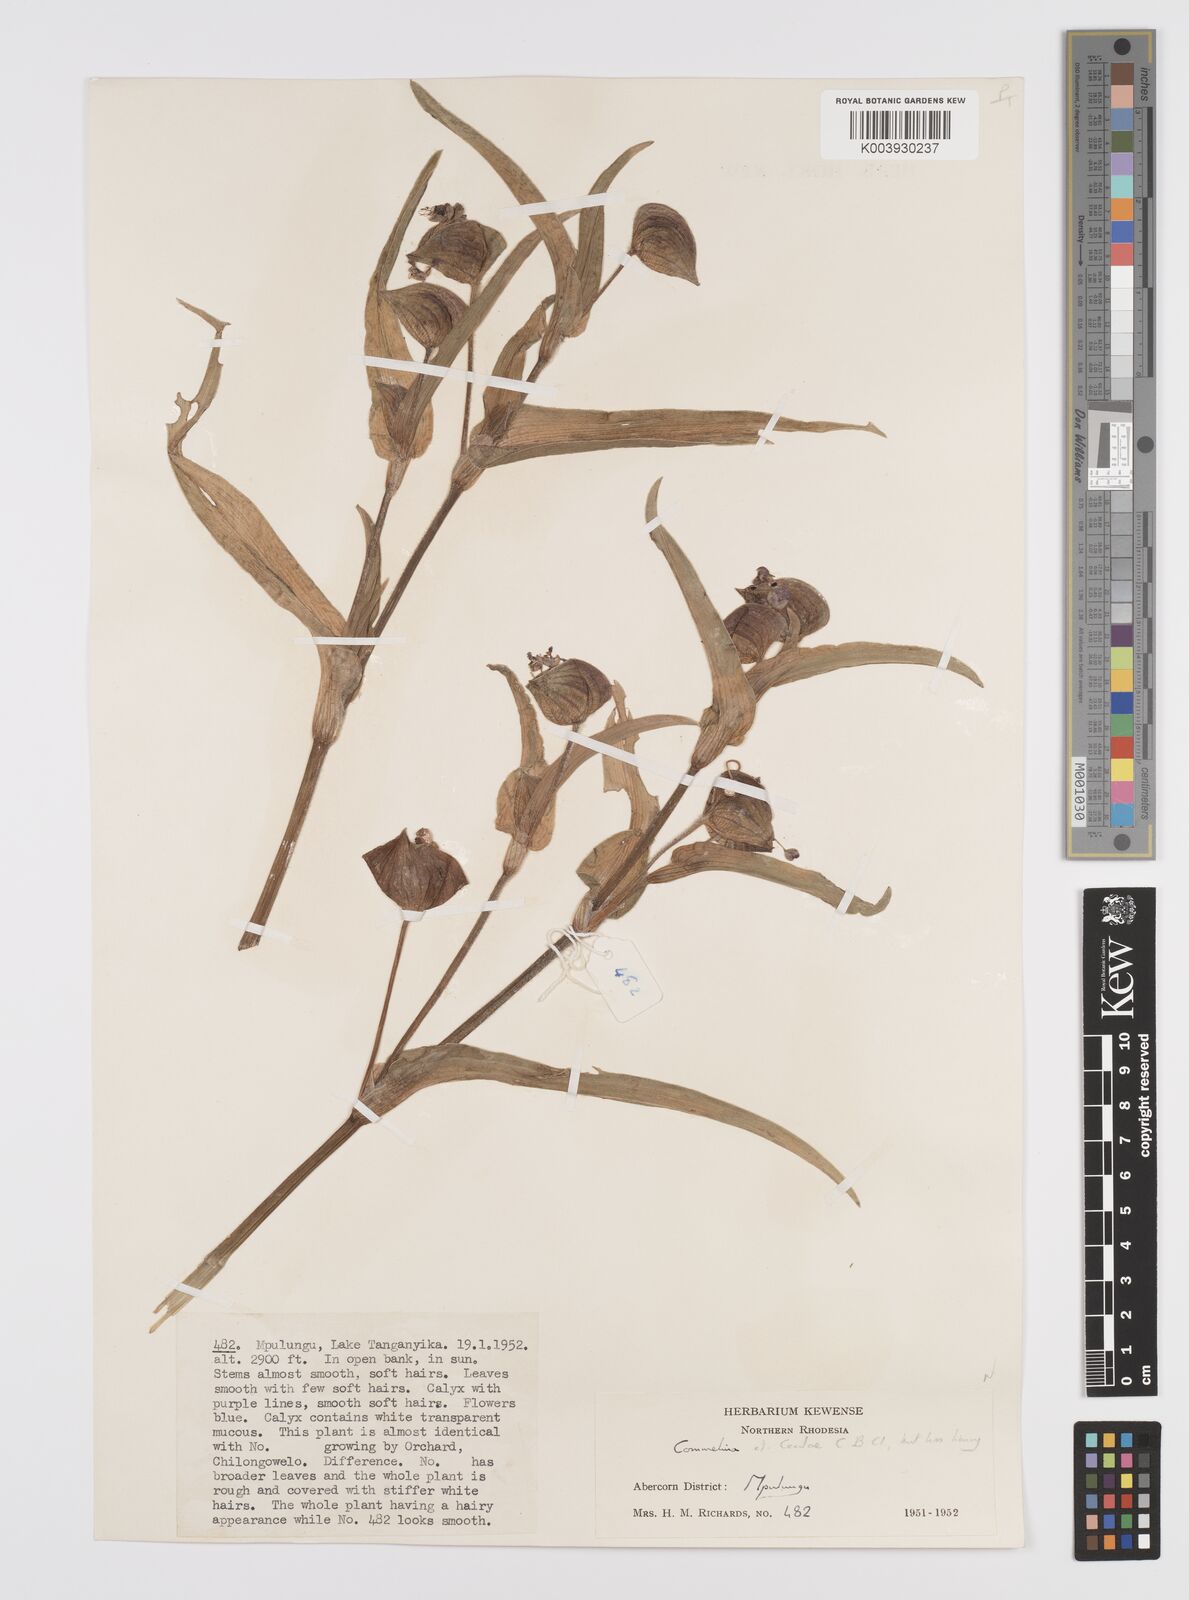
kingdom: Plantae
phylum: Tracheophyta
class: Liliopsida
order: Commelinales
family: Commelinaceae
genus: Commelina
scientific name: Commelina schweinfurthii
